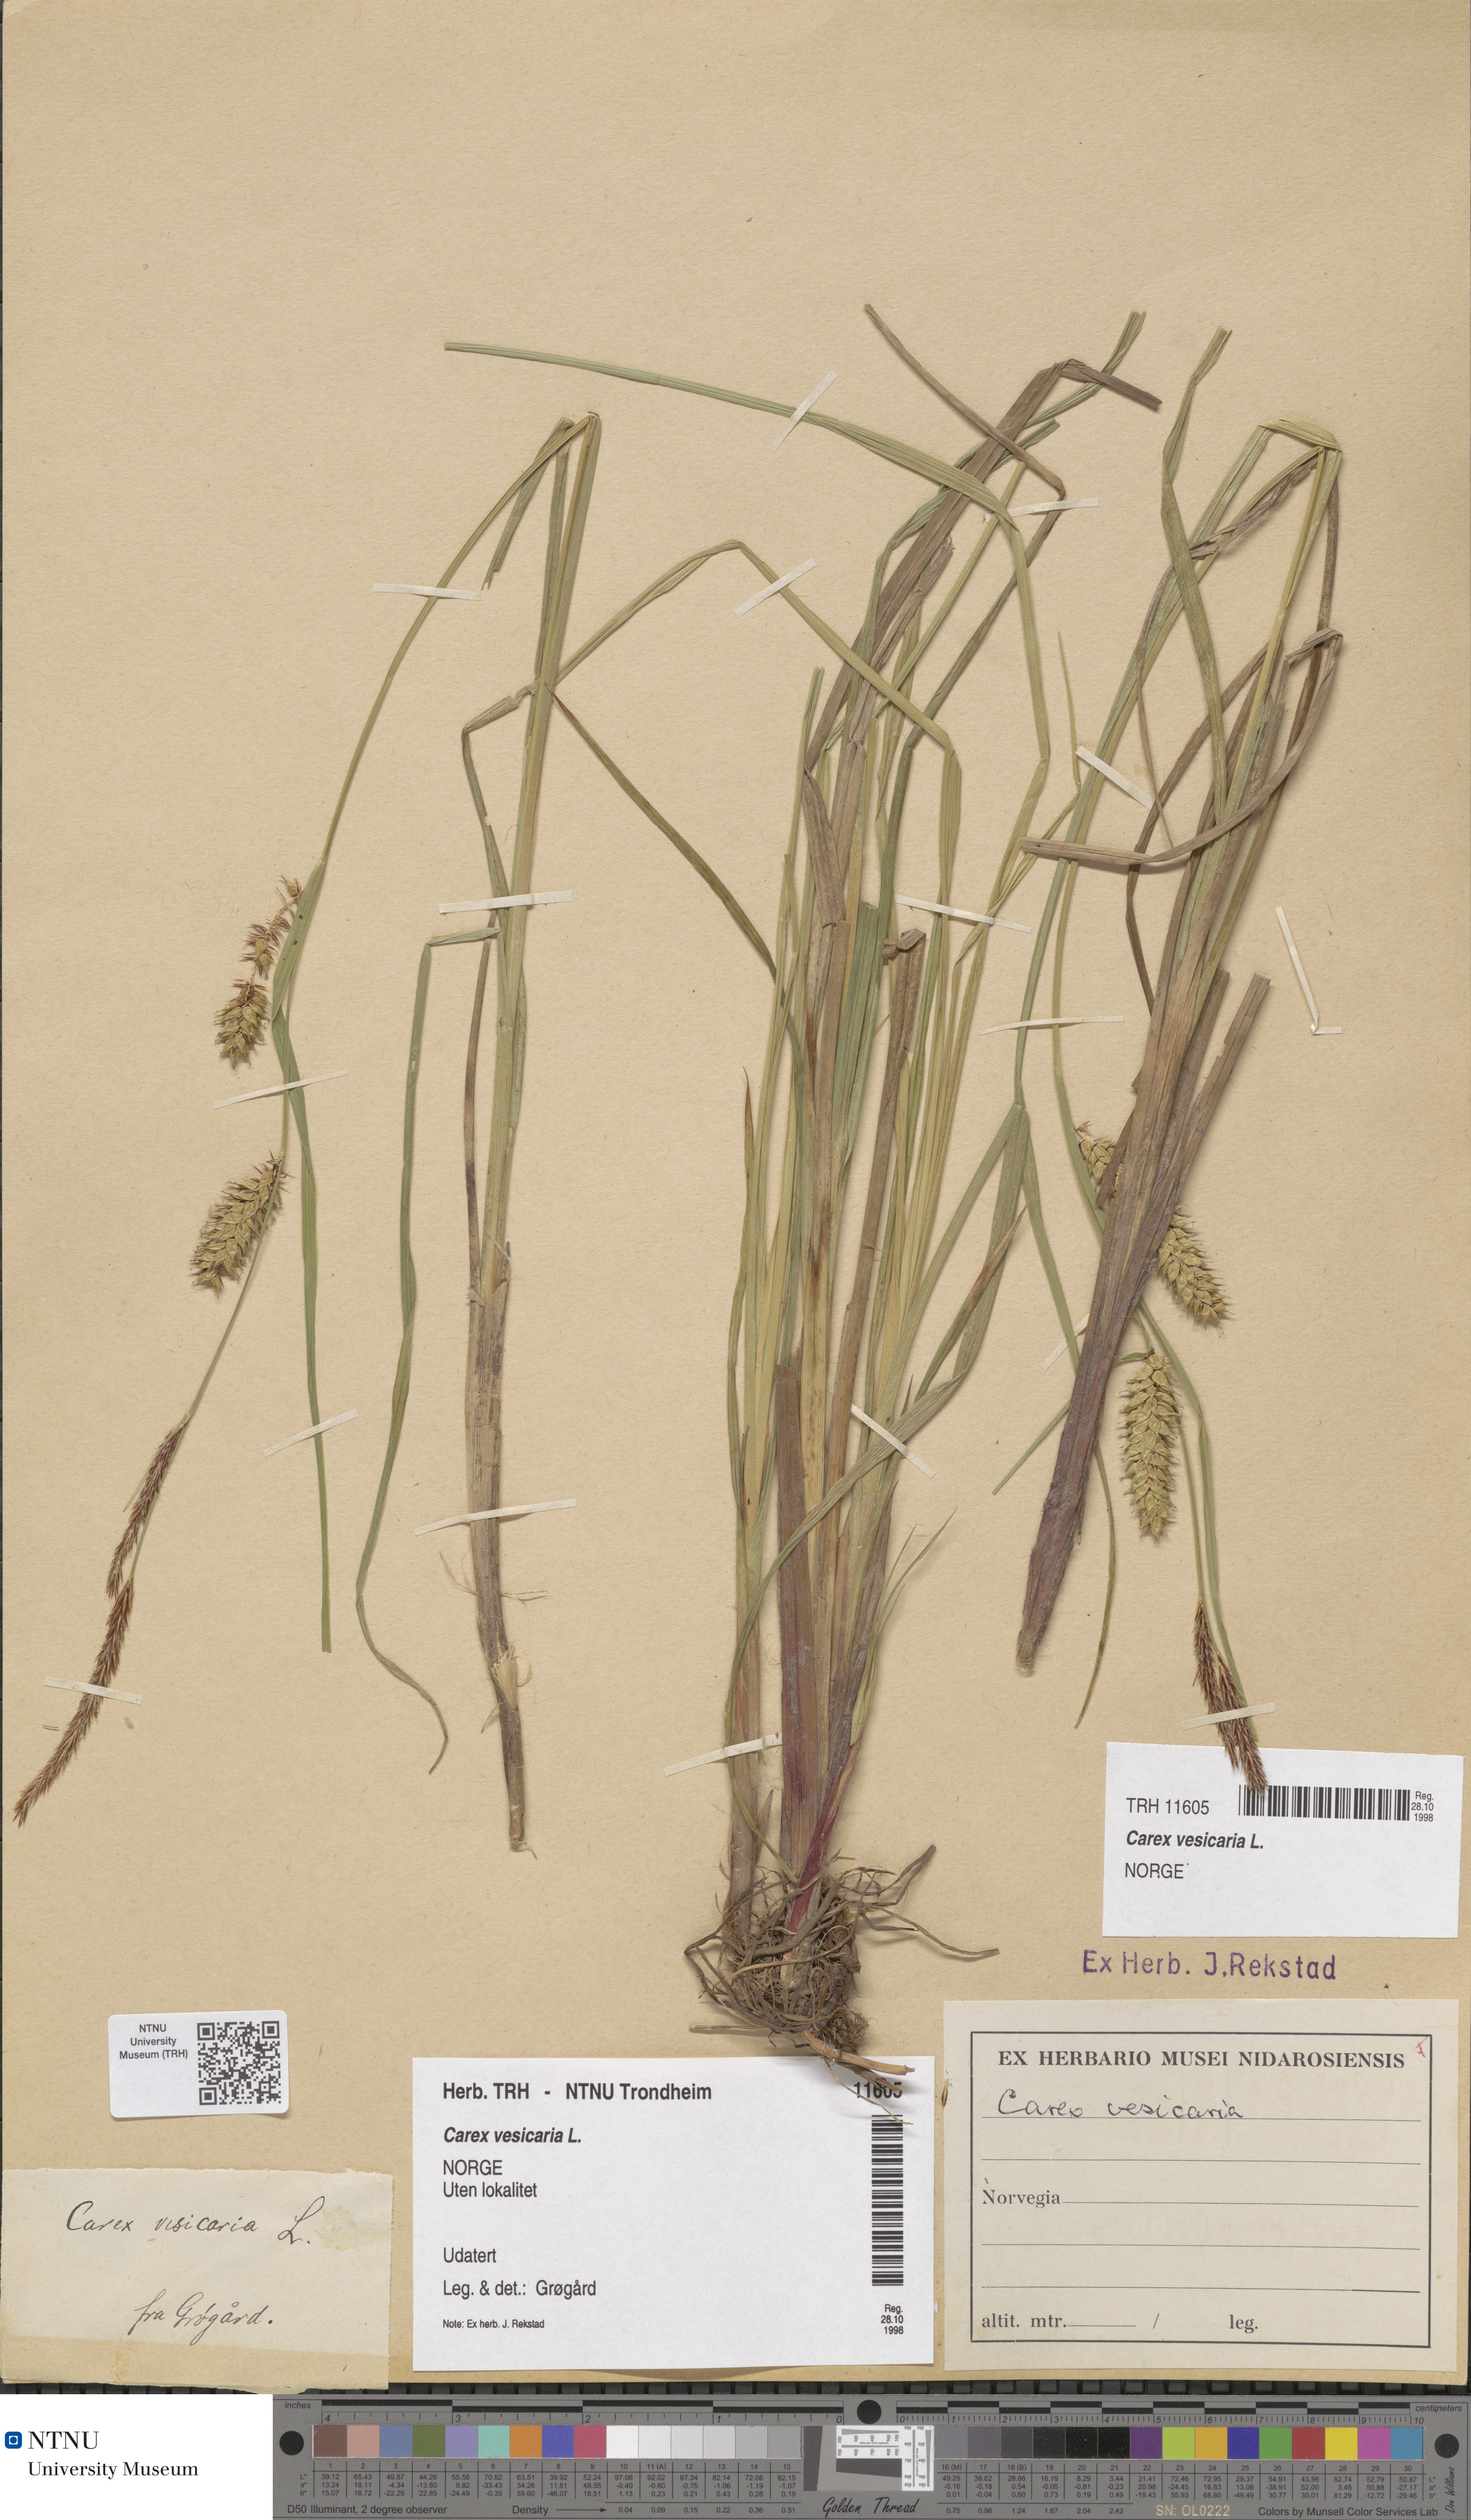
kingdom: Plantae
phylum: Tracheophyta
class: Liliopsida
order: Poales
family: Cyperaceae
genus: Carex
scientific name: Carex vesicaria
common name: Bladder-sedge
